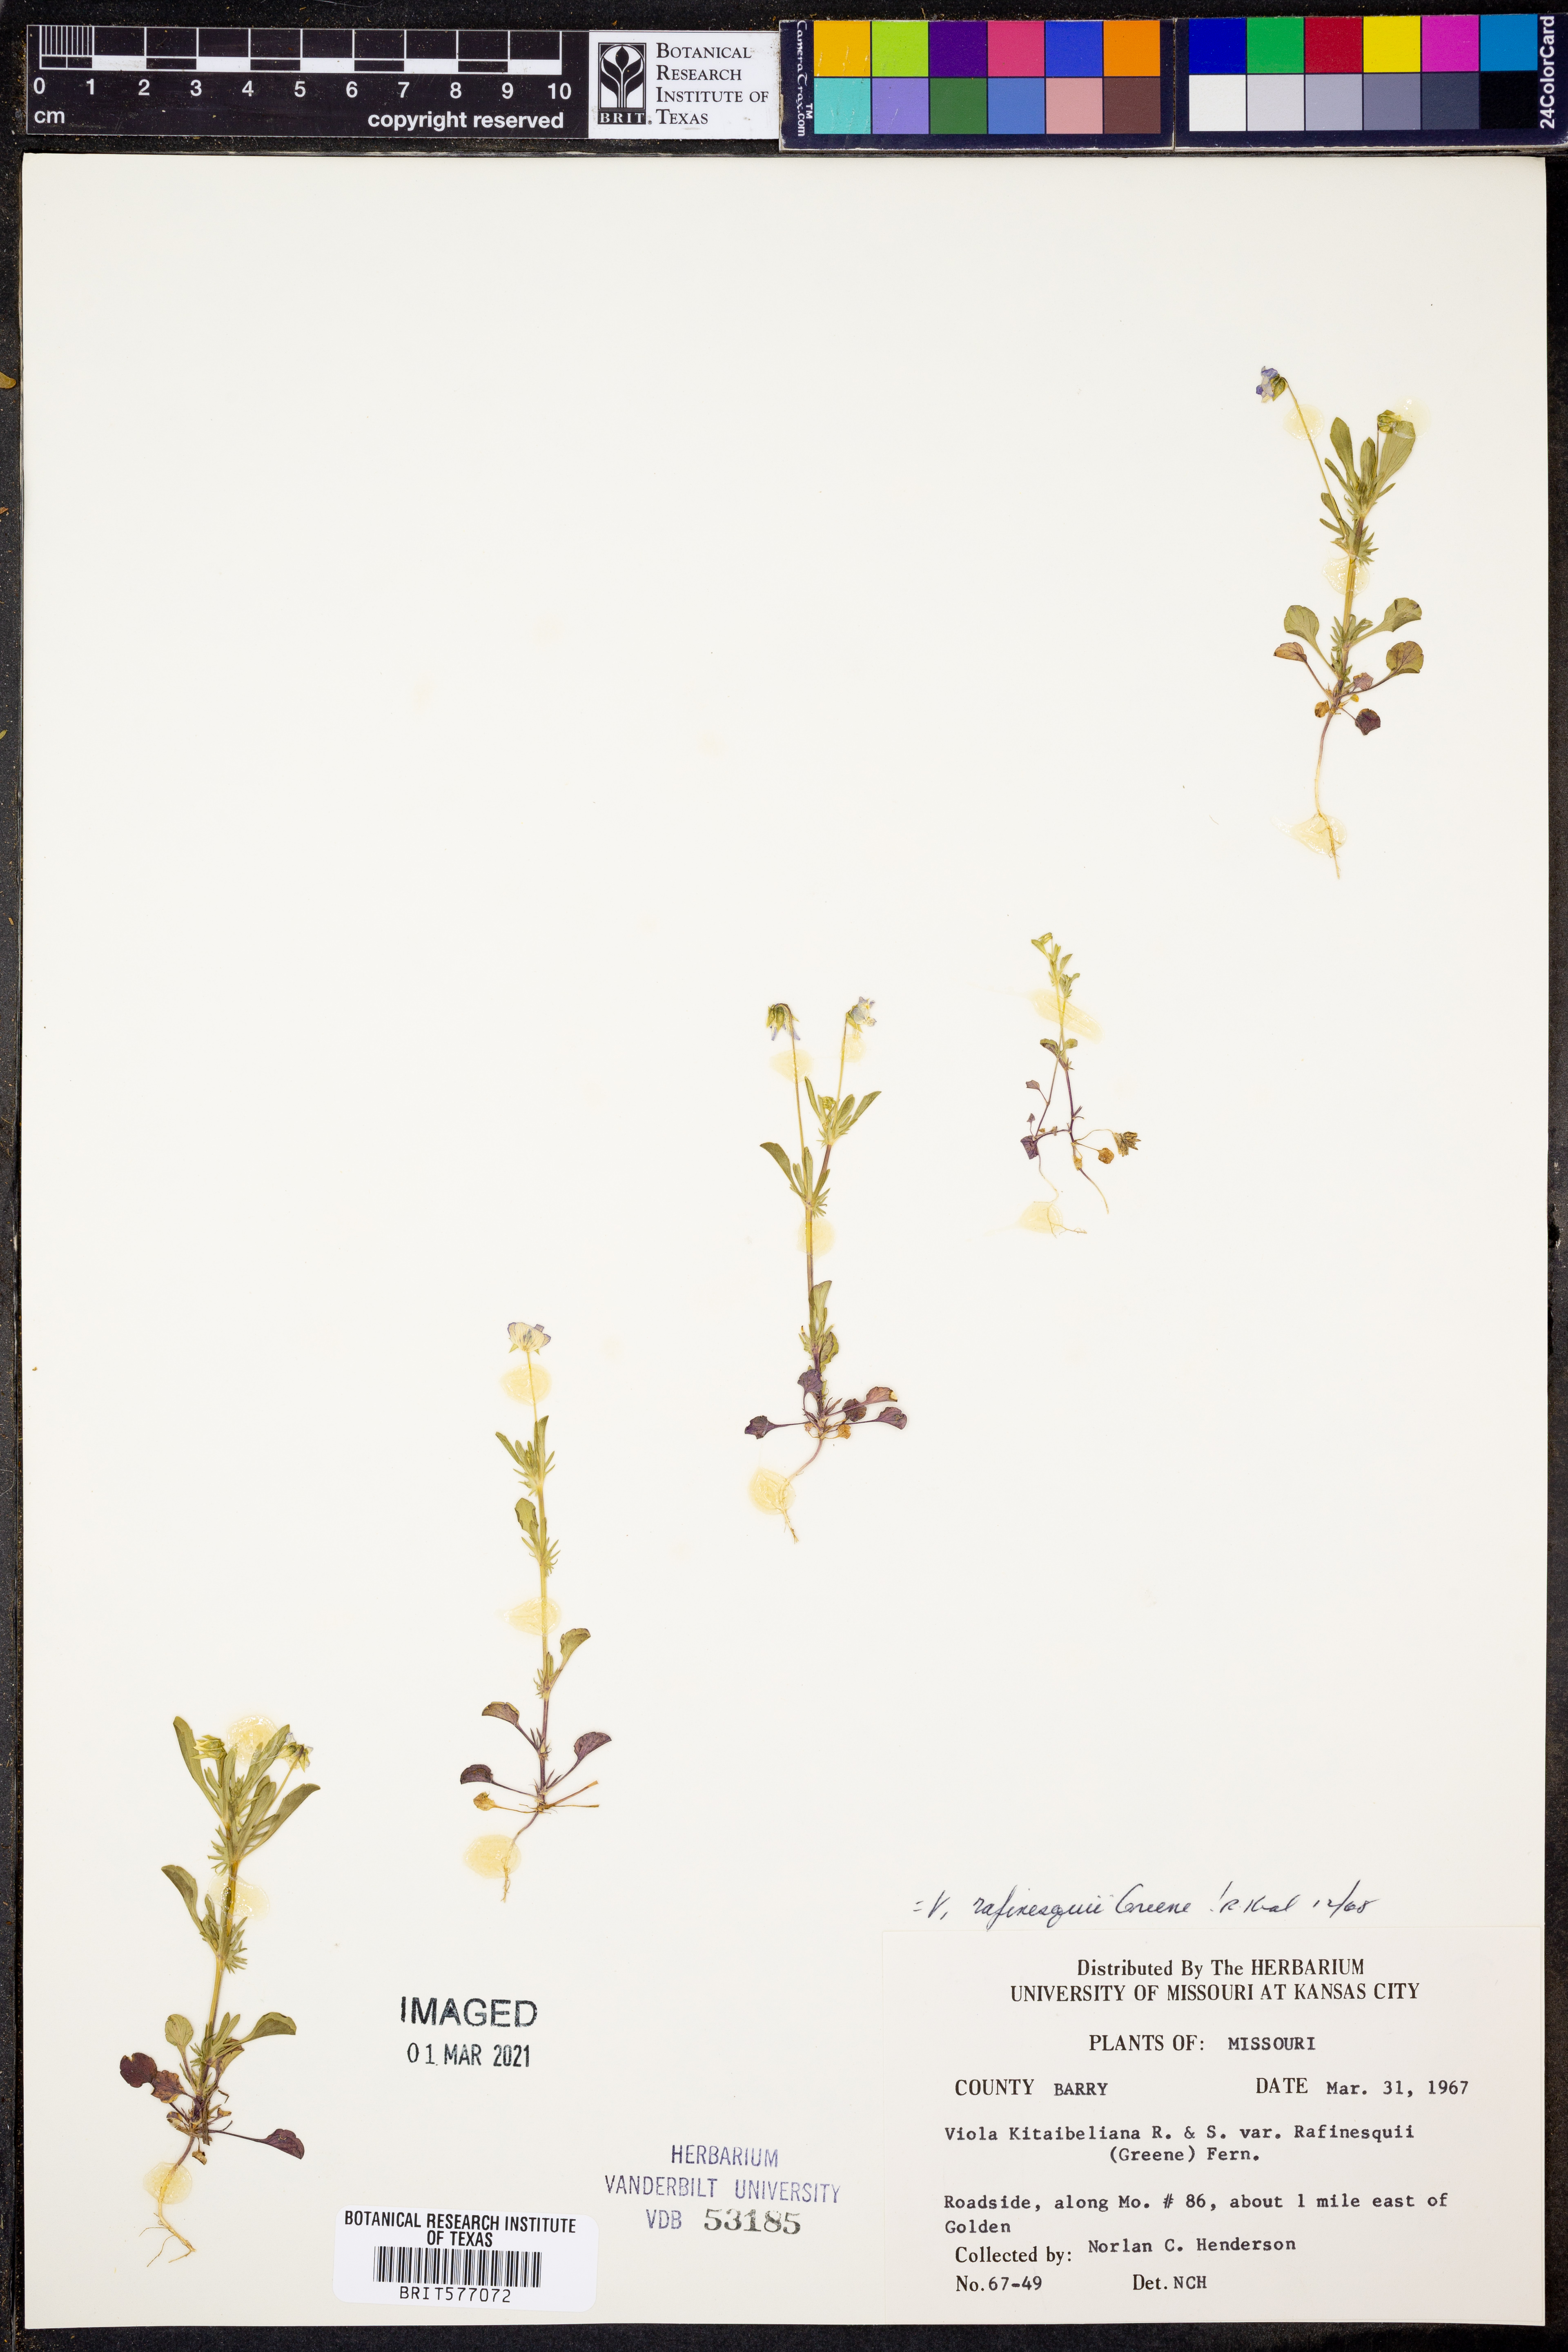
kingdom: Plantae
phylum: Tracheophyta
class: Magnoliopsida
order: Malpighiales
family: Violaceae
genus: Viola
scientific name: Viola rafinesquei
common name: American field pansy
